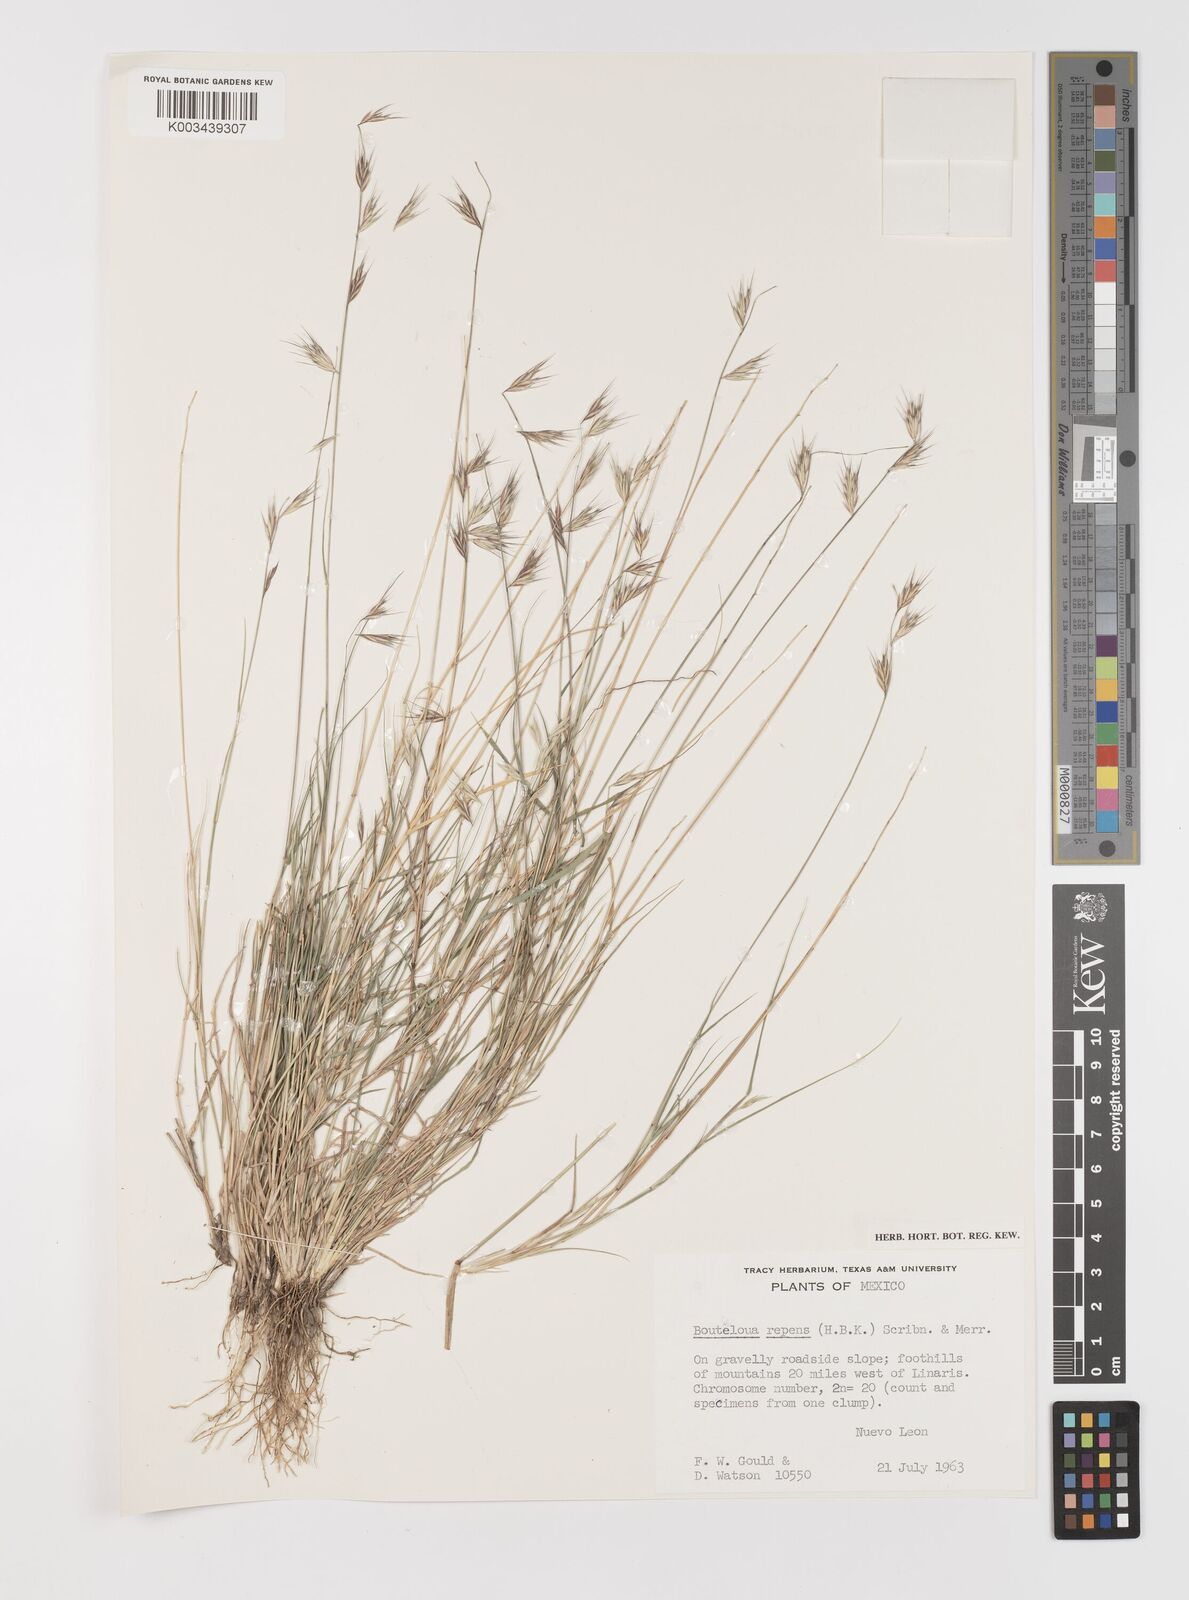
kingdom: Plantae
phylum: Tracheophyta
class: Liliopsida
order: Poales
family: Poaceae
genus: Bouteloua
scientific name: Bouteloua repens
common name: Slender grama
